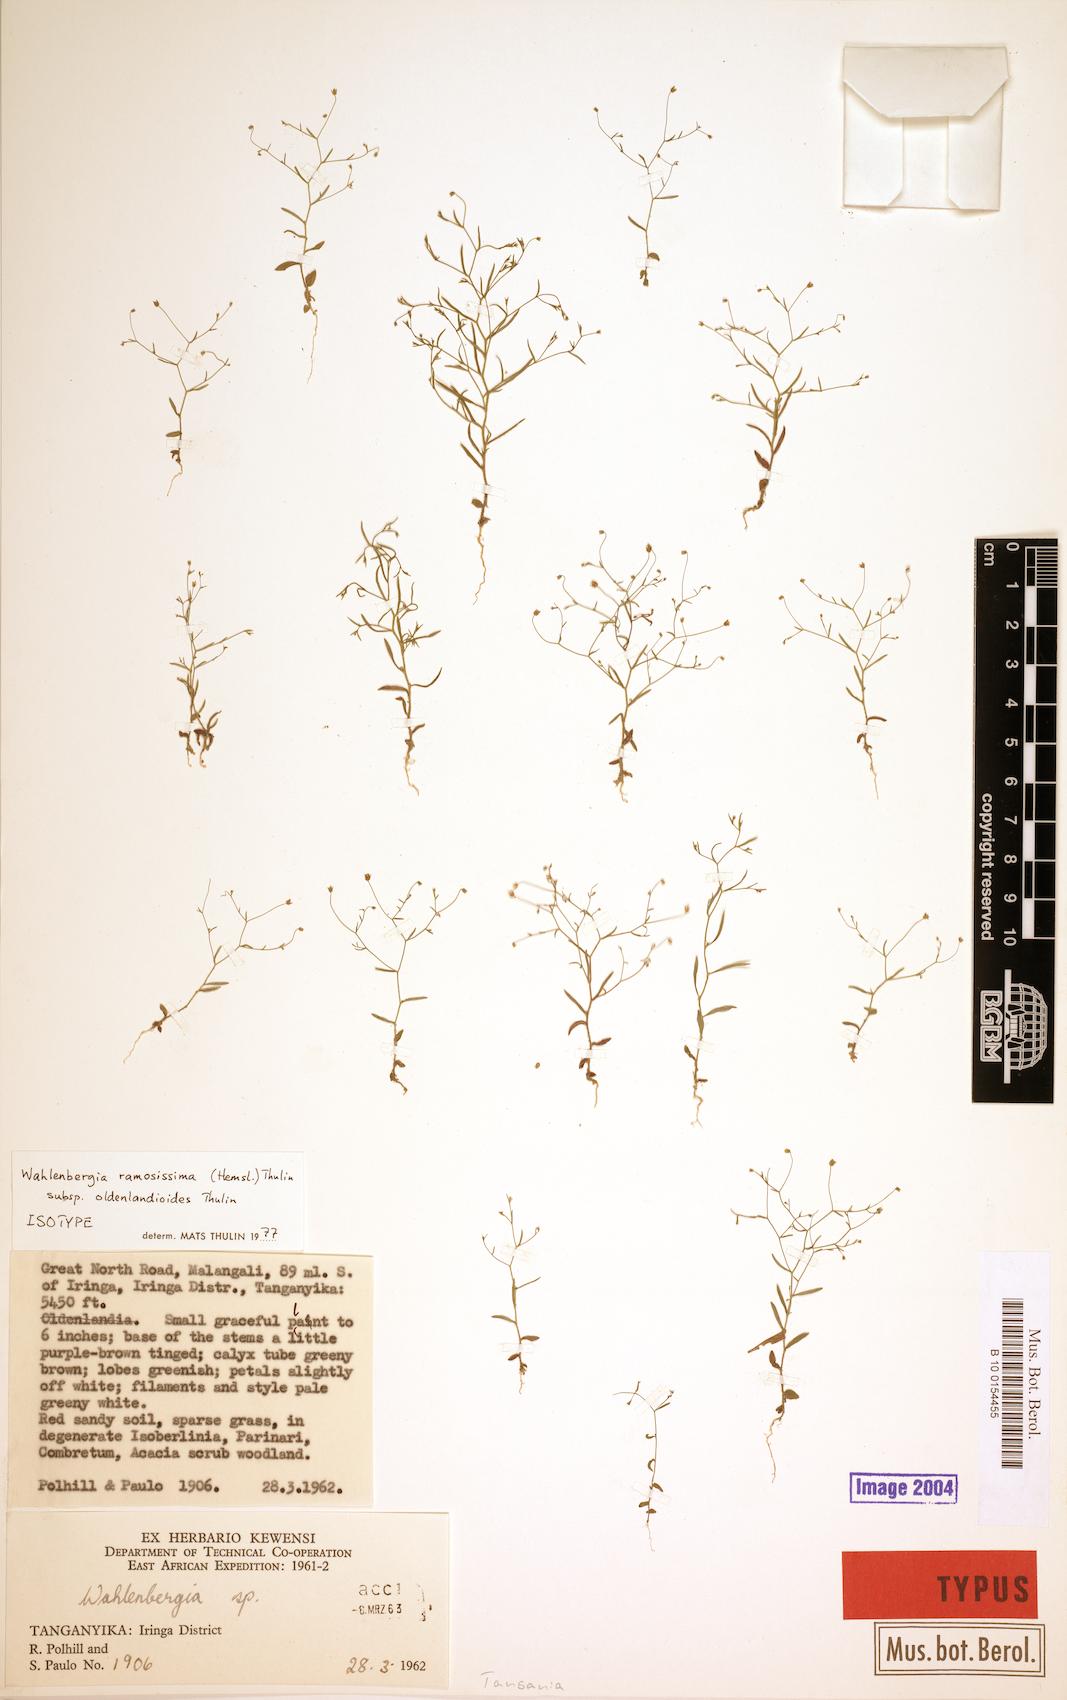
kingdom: Plantae
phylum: Tracheophyta
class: Magnoliopsida
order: Asterales
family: Campanulaceae
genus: Wahlenbergia
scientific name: Wahlenbergia ramosissima
